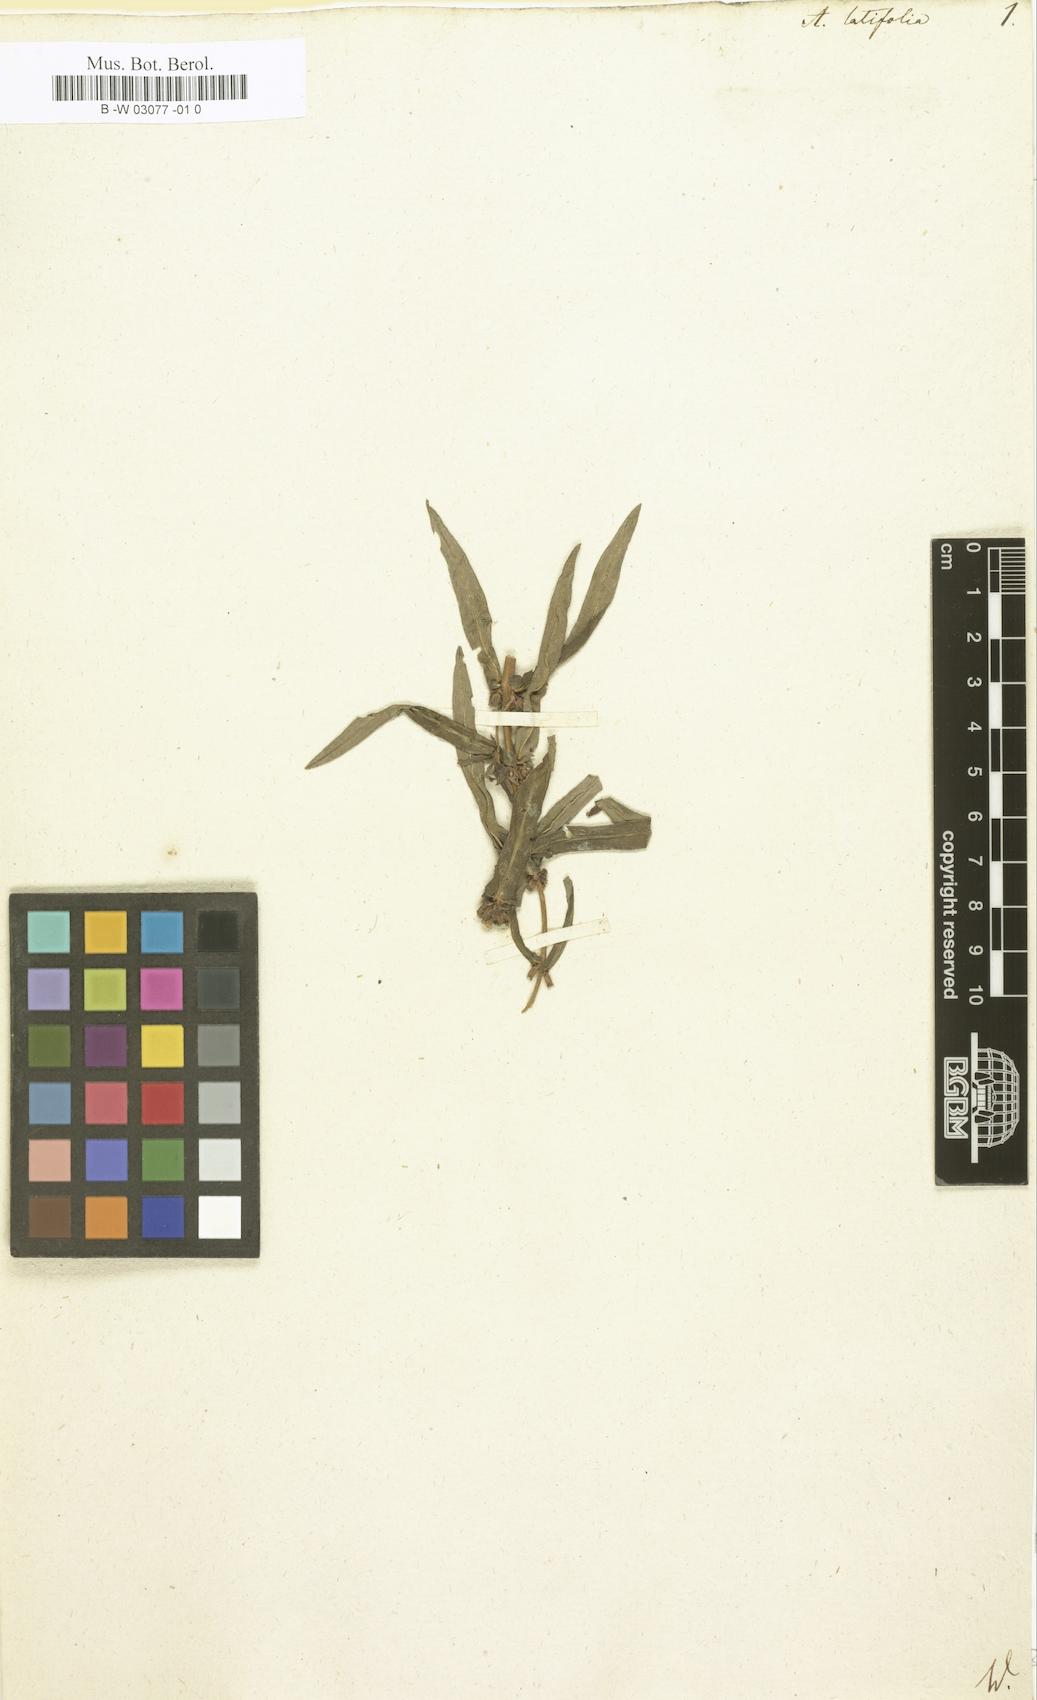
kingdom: Plantae
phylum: Tracheophyta
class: Magnoliopsida
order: Myrtales
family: Lythraceae
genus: Ammannia
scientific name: Ammannia latifolia
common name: Toothcup
